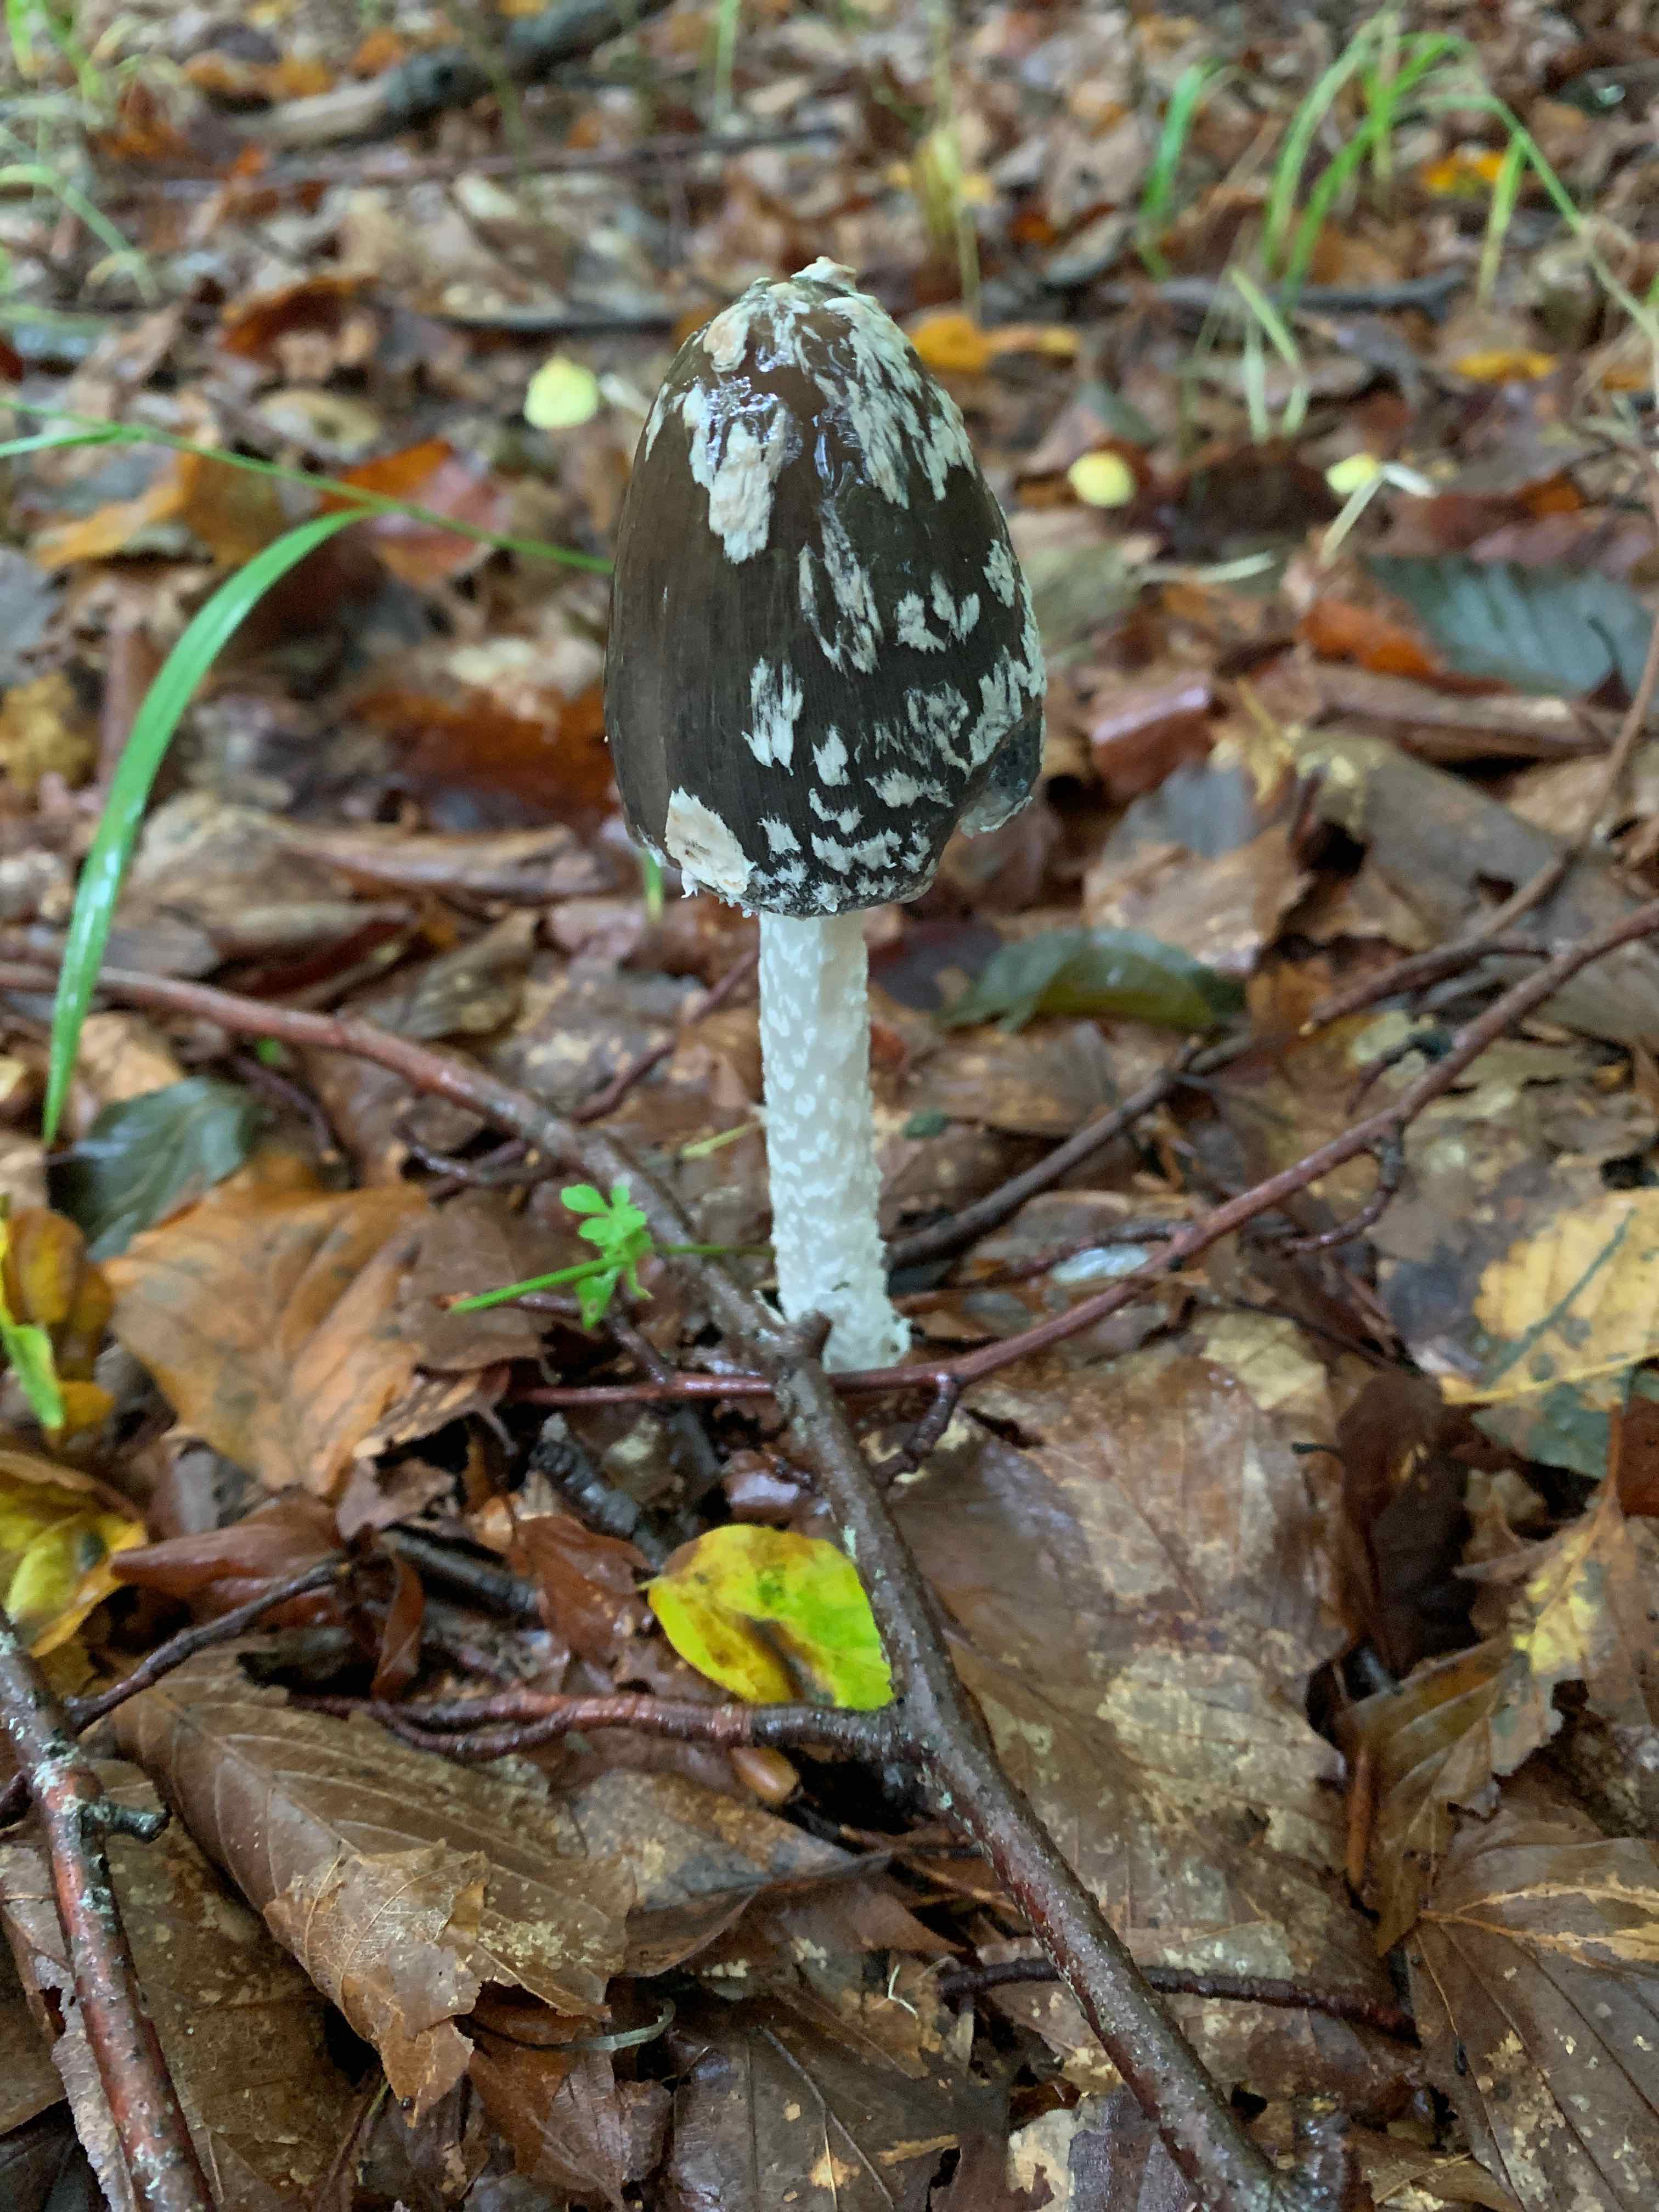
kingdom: Fungi
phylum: Basidiomycota
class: Agaricomycetes
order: Agaricales
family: Psathyrellaceae
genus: Coprinopsis
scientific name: Coprinopsis picacea
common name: skade-blækhat
